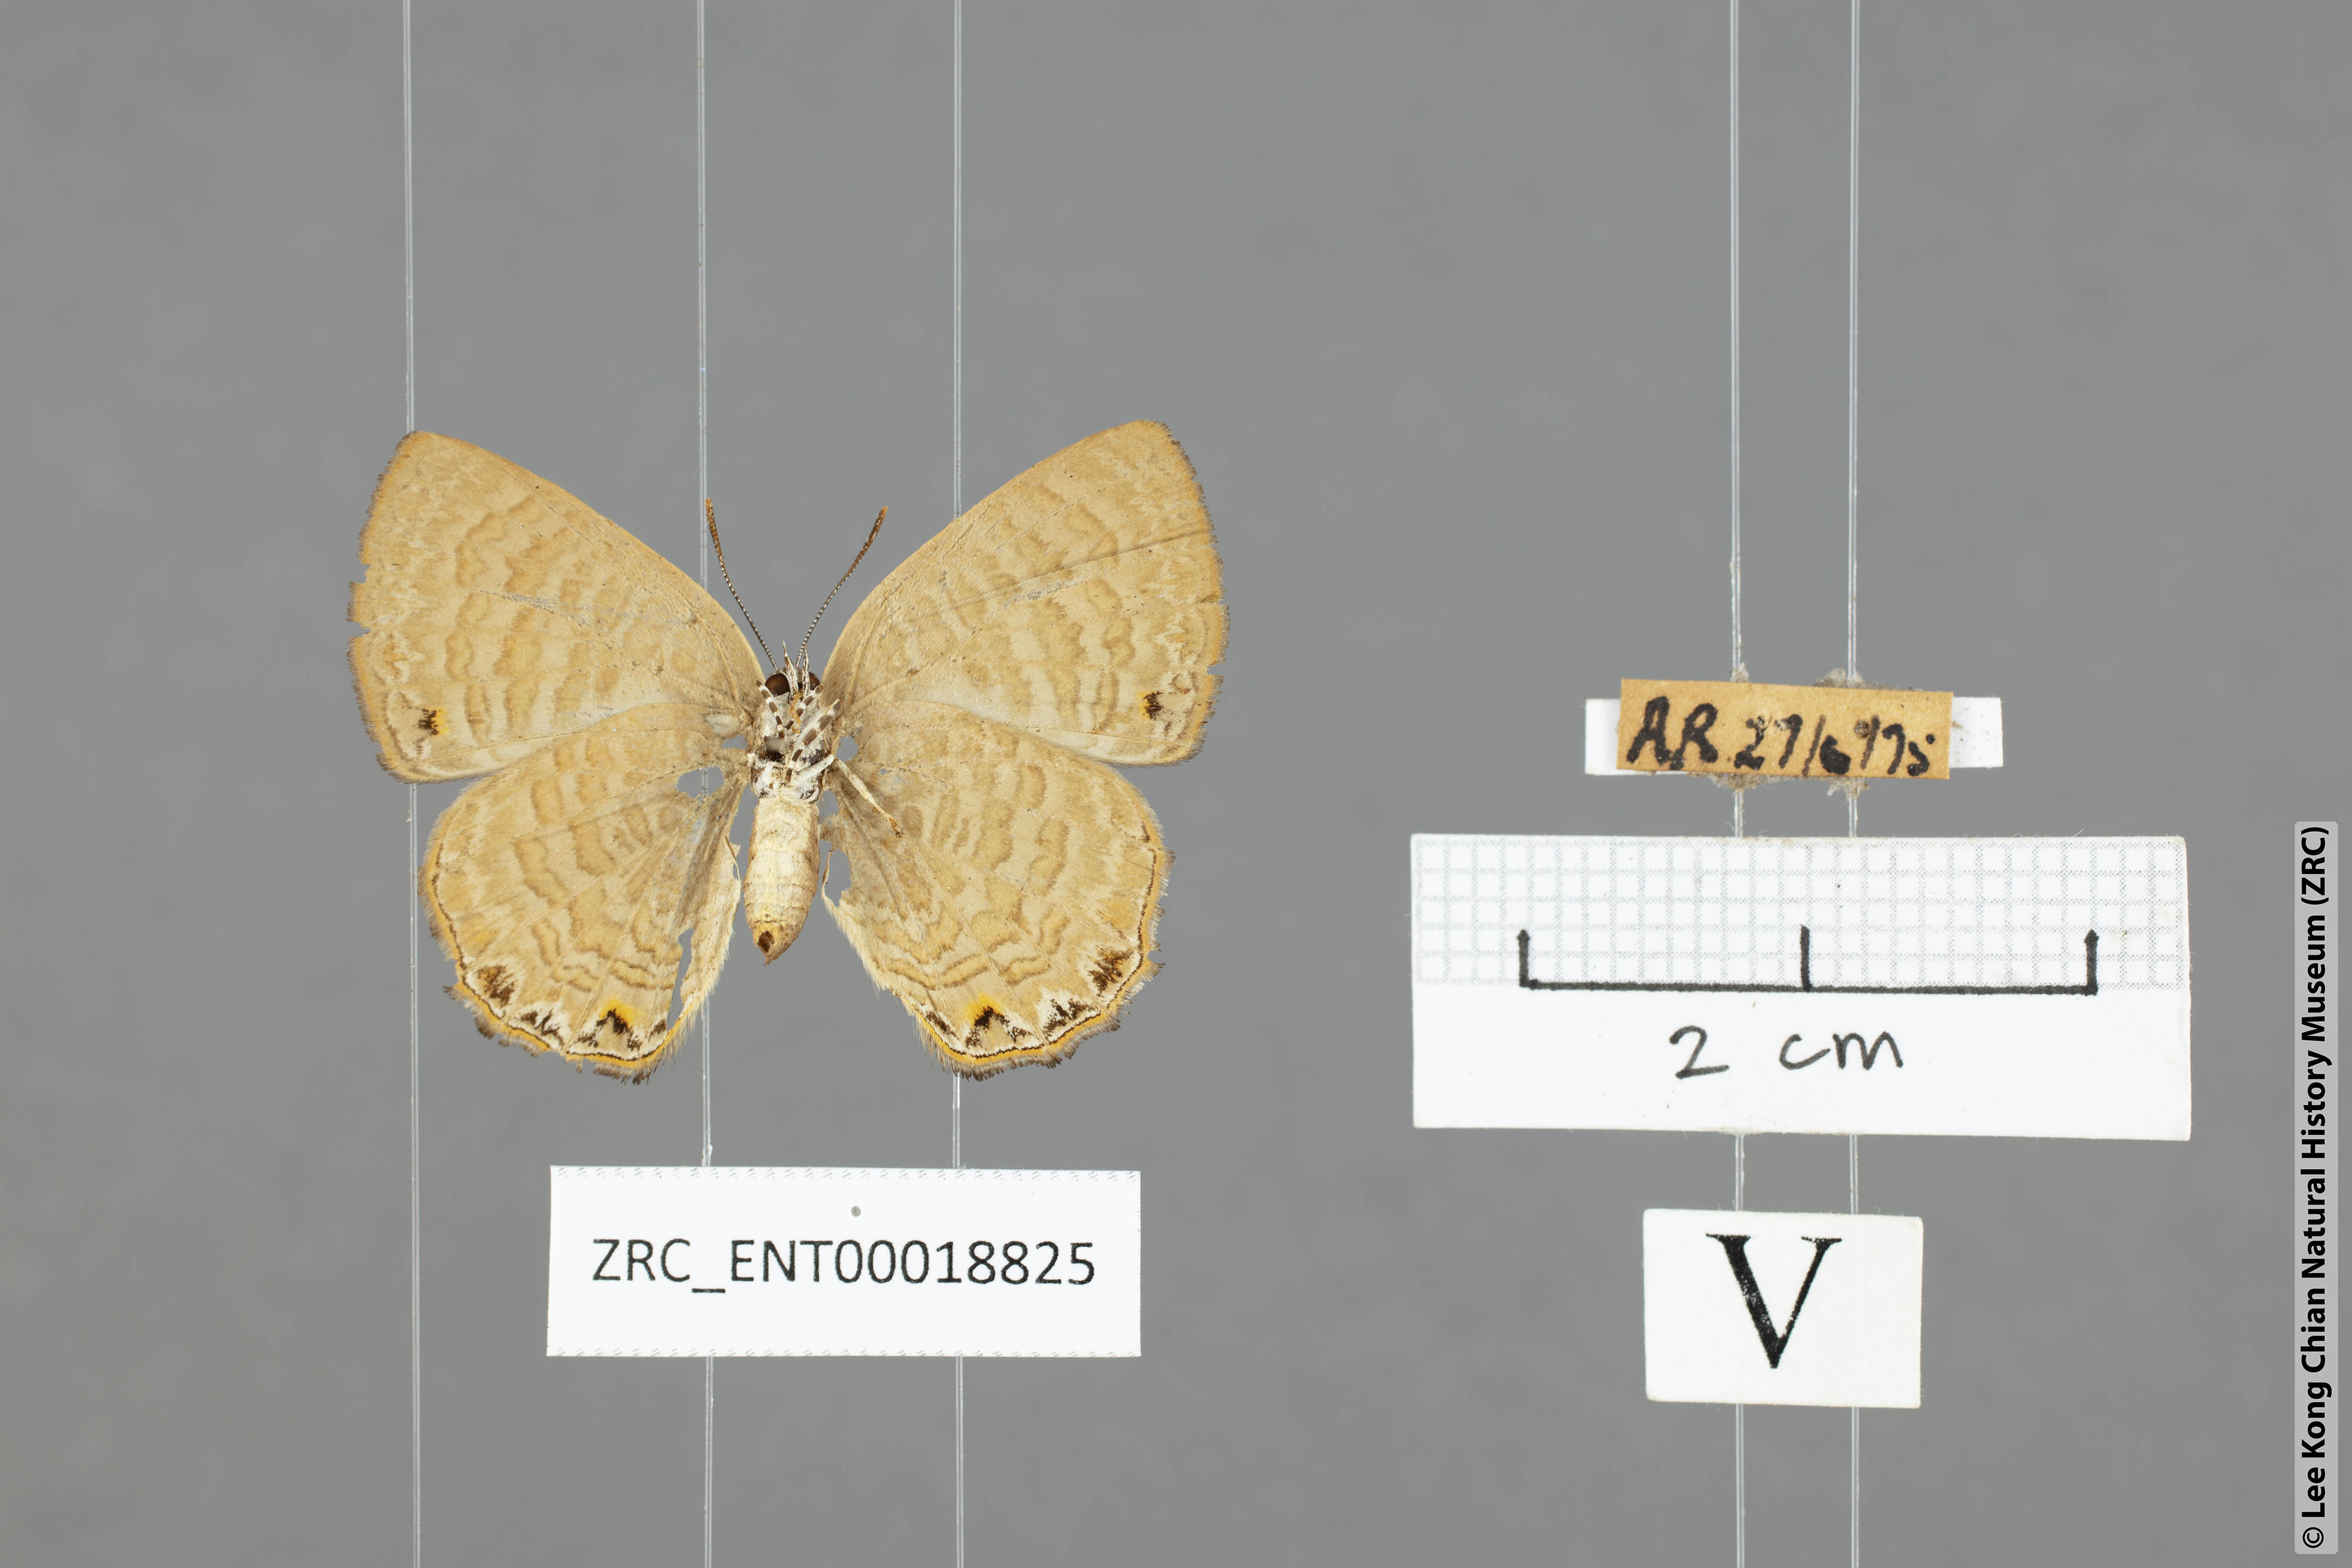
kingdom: Animalia
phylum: Arthropoda
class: Insecta
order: Lepidoptera
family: Lycaenidae
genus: Poritia
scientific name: Poritia philota
